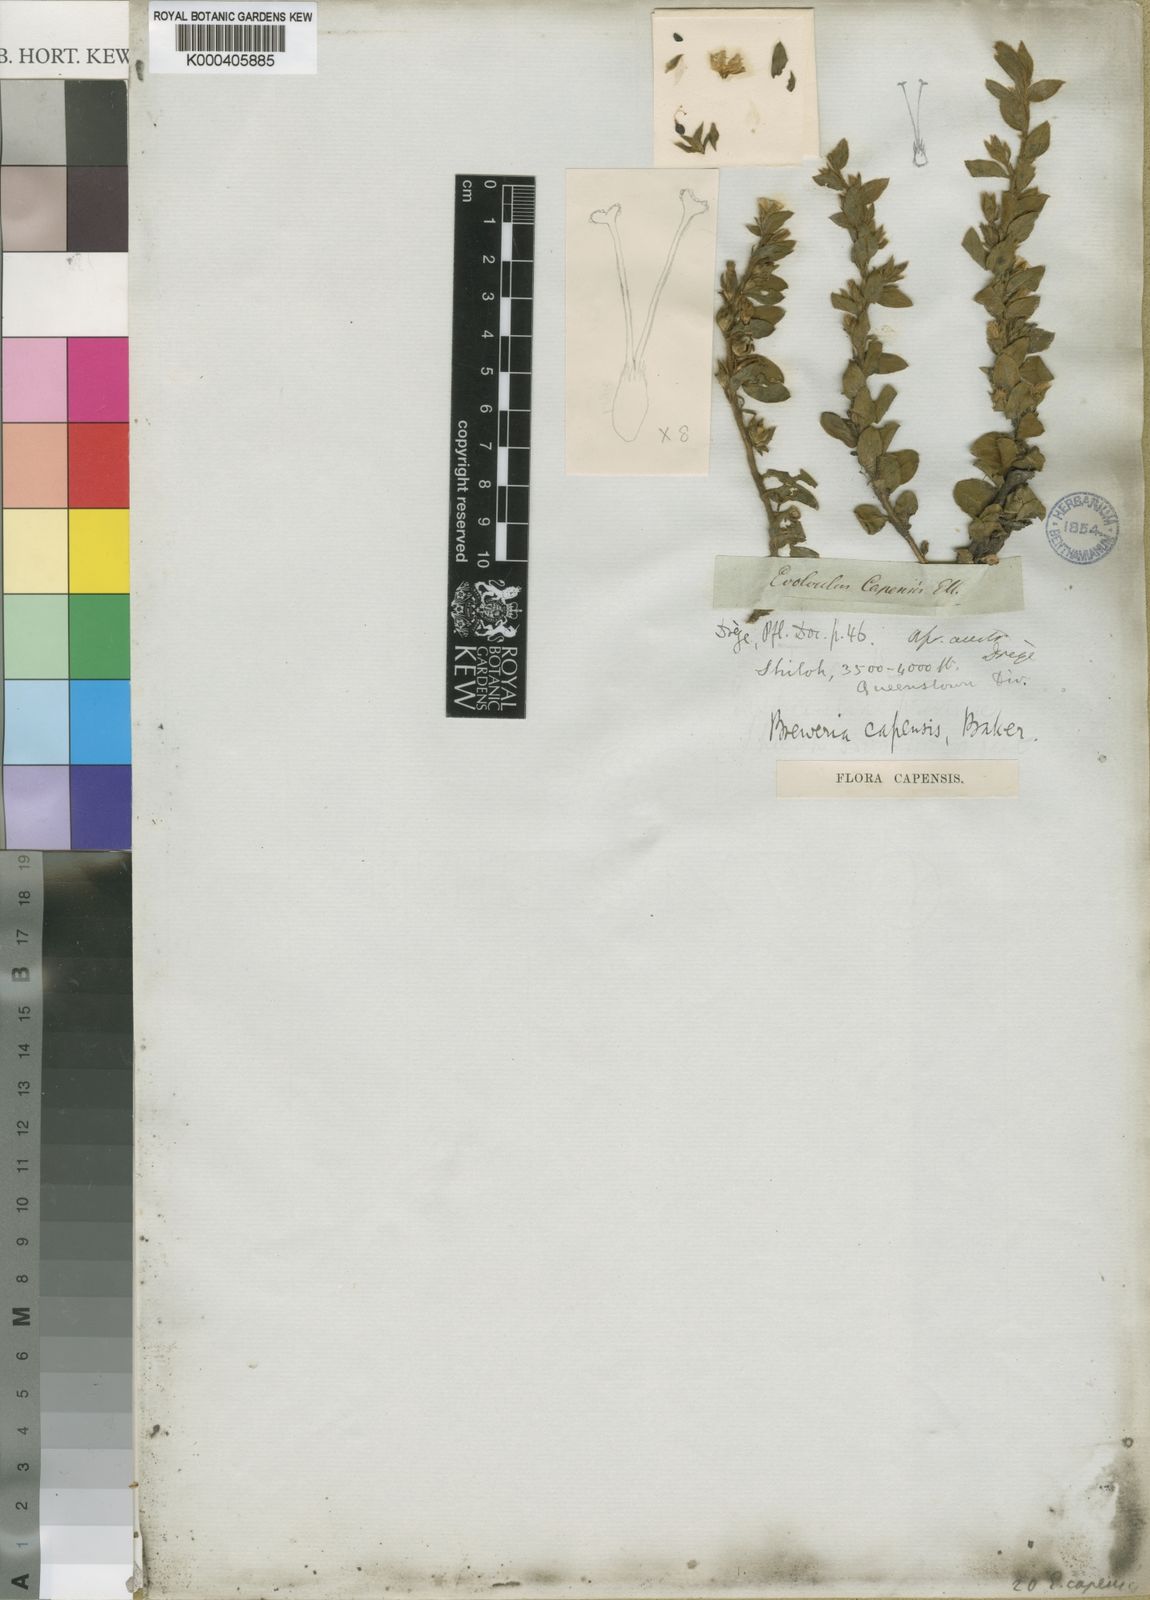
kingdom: Plantae
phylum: Tracheophyta
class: Magnoliopsida
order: Solanales
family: Convolvulaceae
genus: Seddera
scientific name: Seddera capensis
